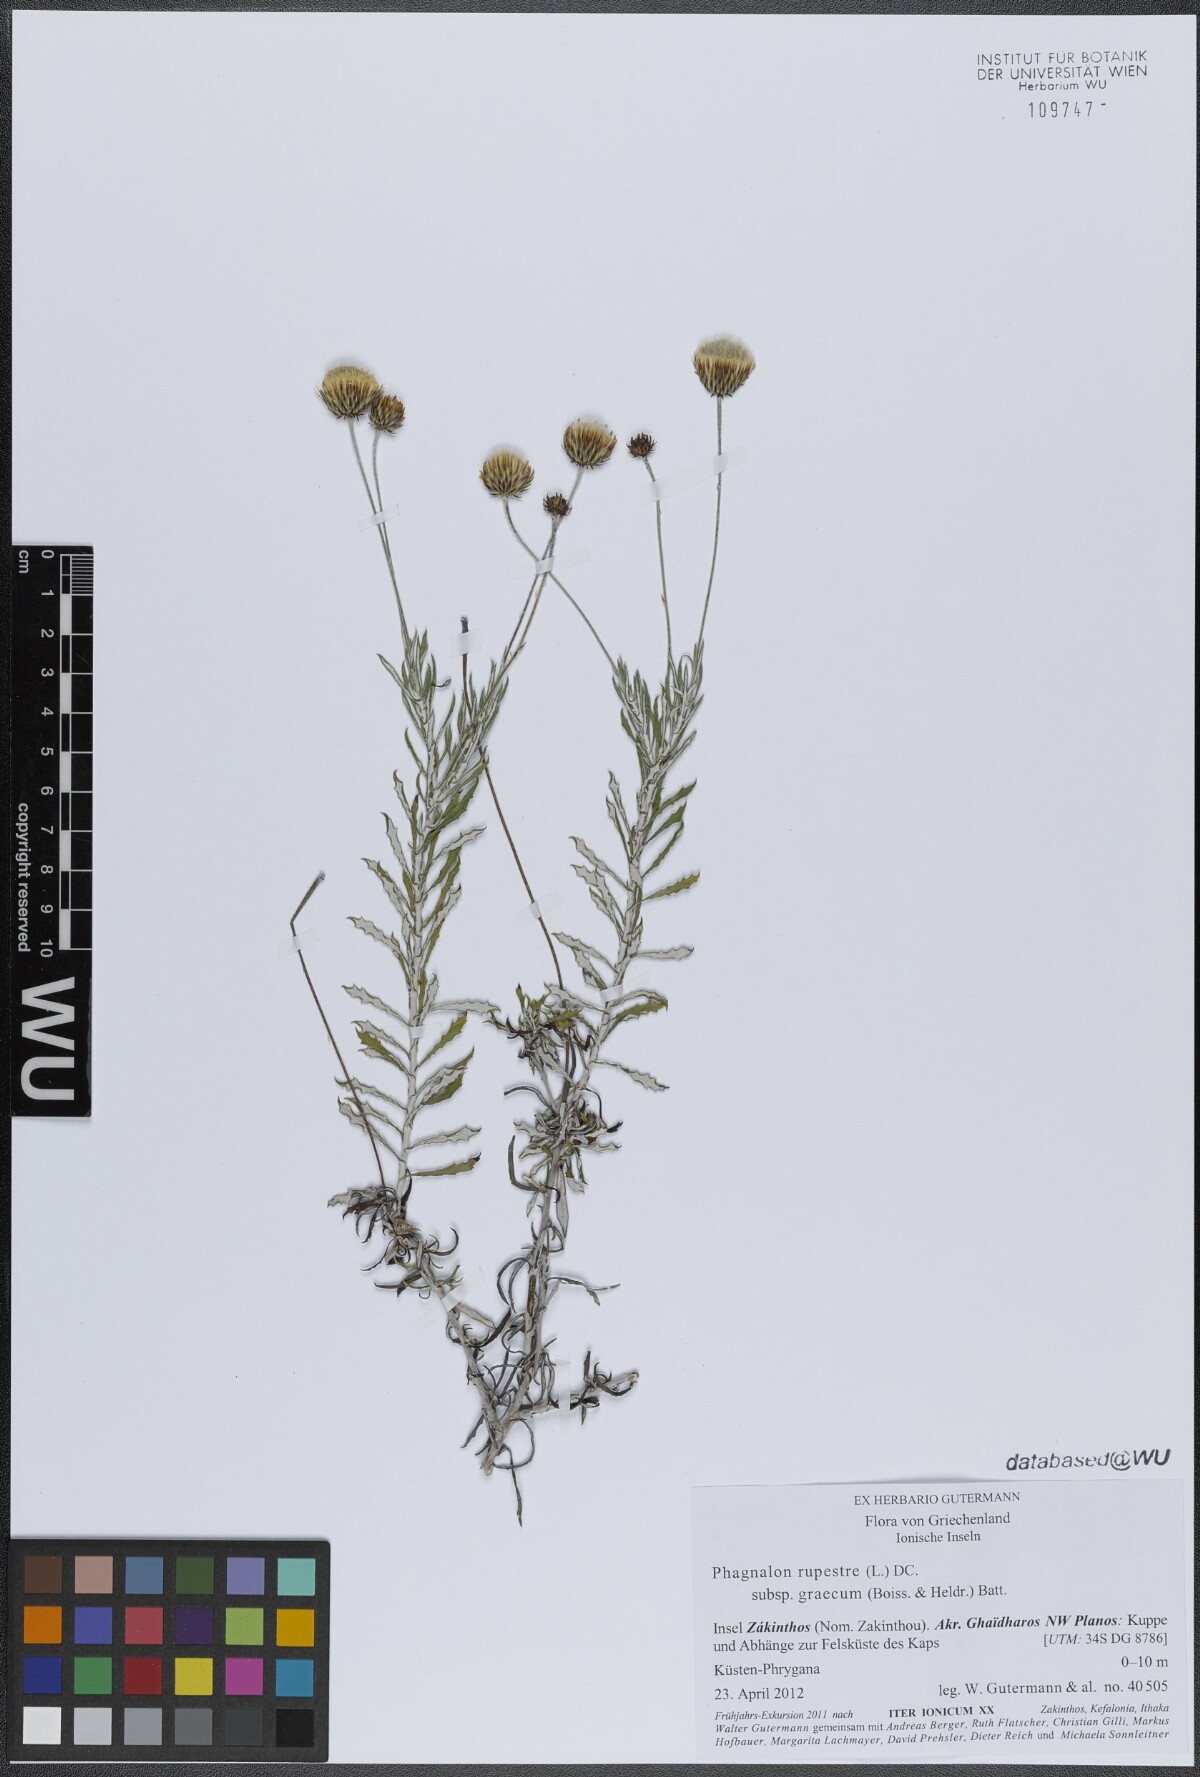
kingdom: Plantae
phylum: Tracheophyta
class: Magnoliopsida
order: Asterales
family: Asteraceae
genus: Phagnalon
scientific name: Phagnalon graecum
